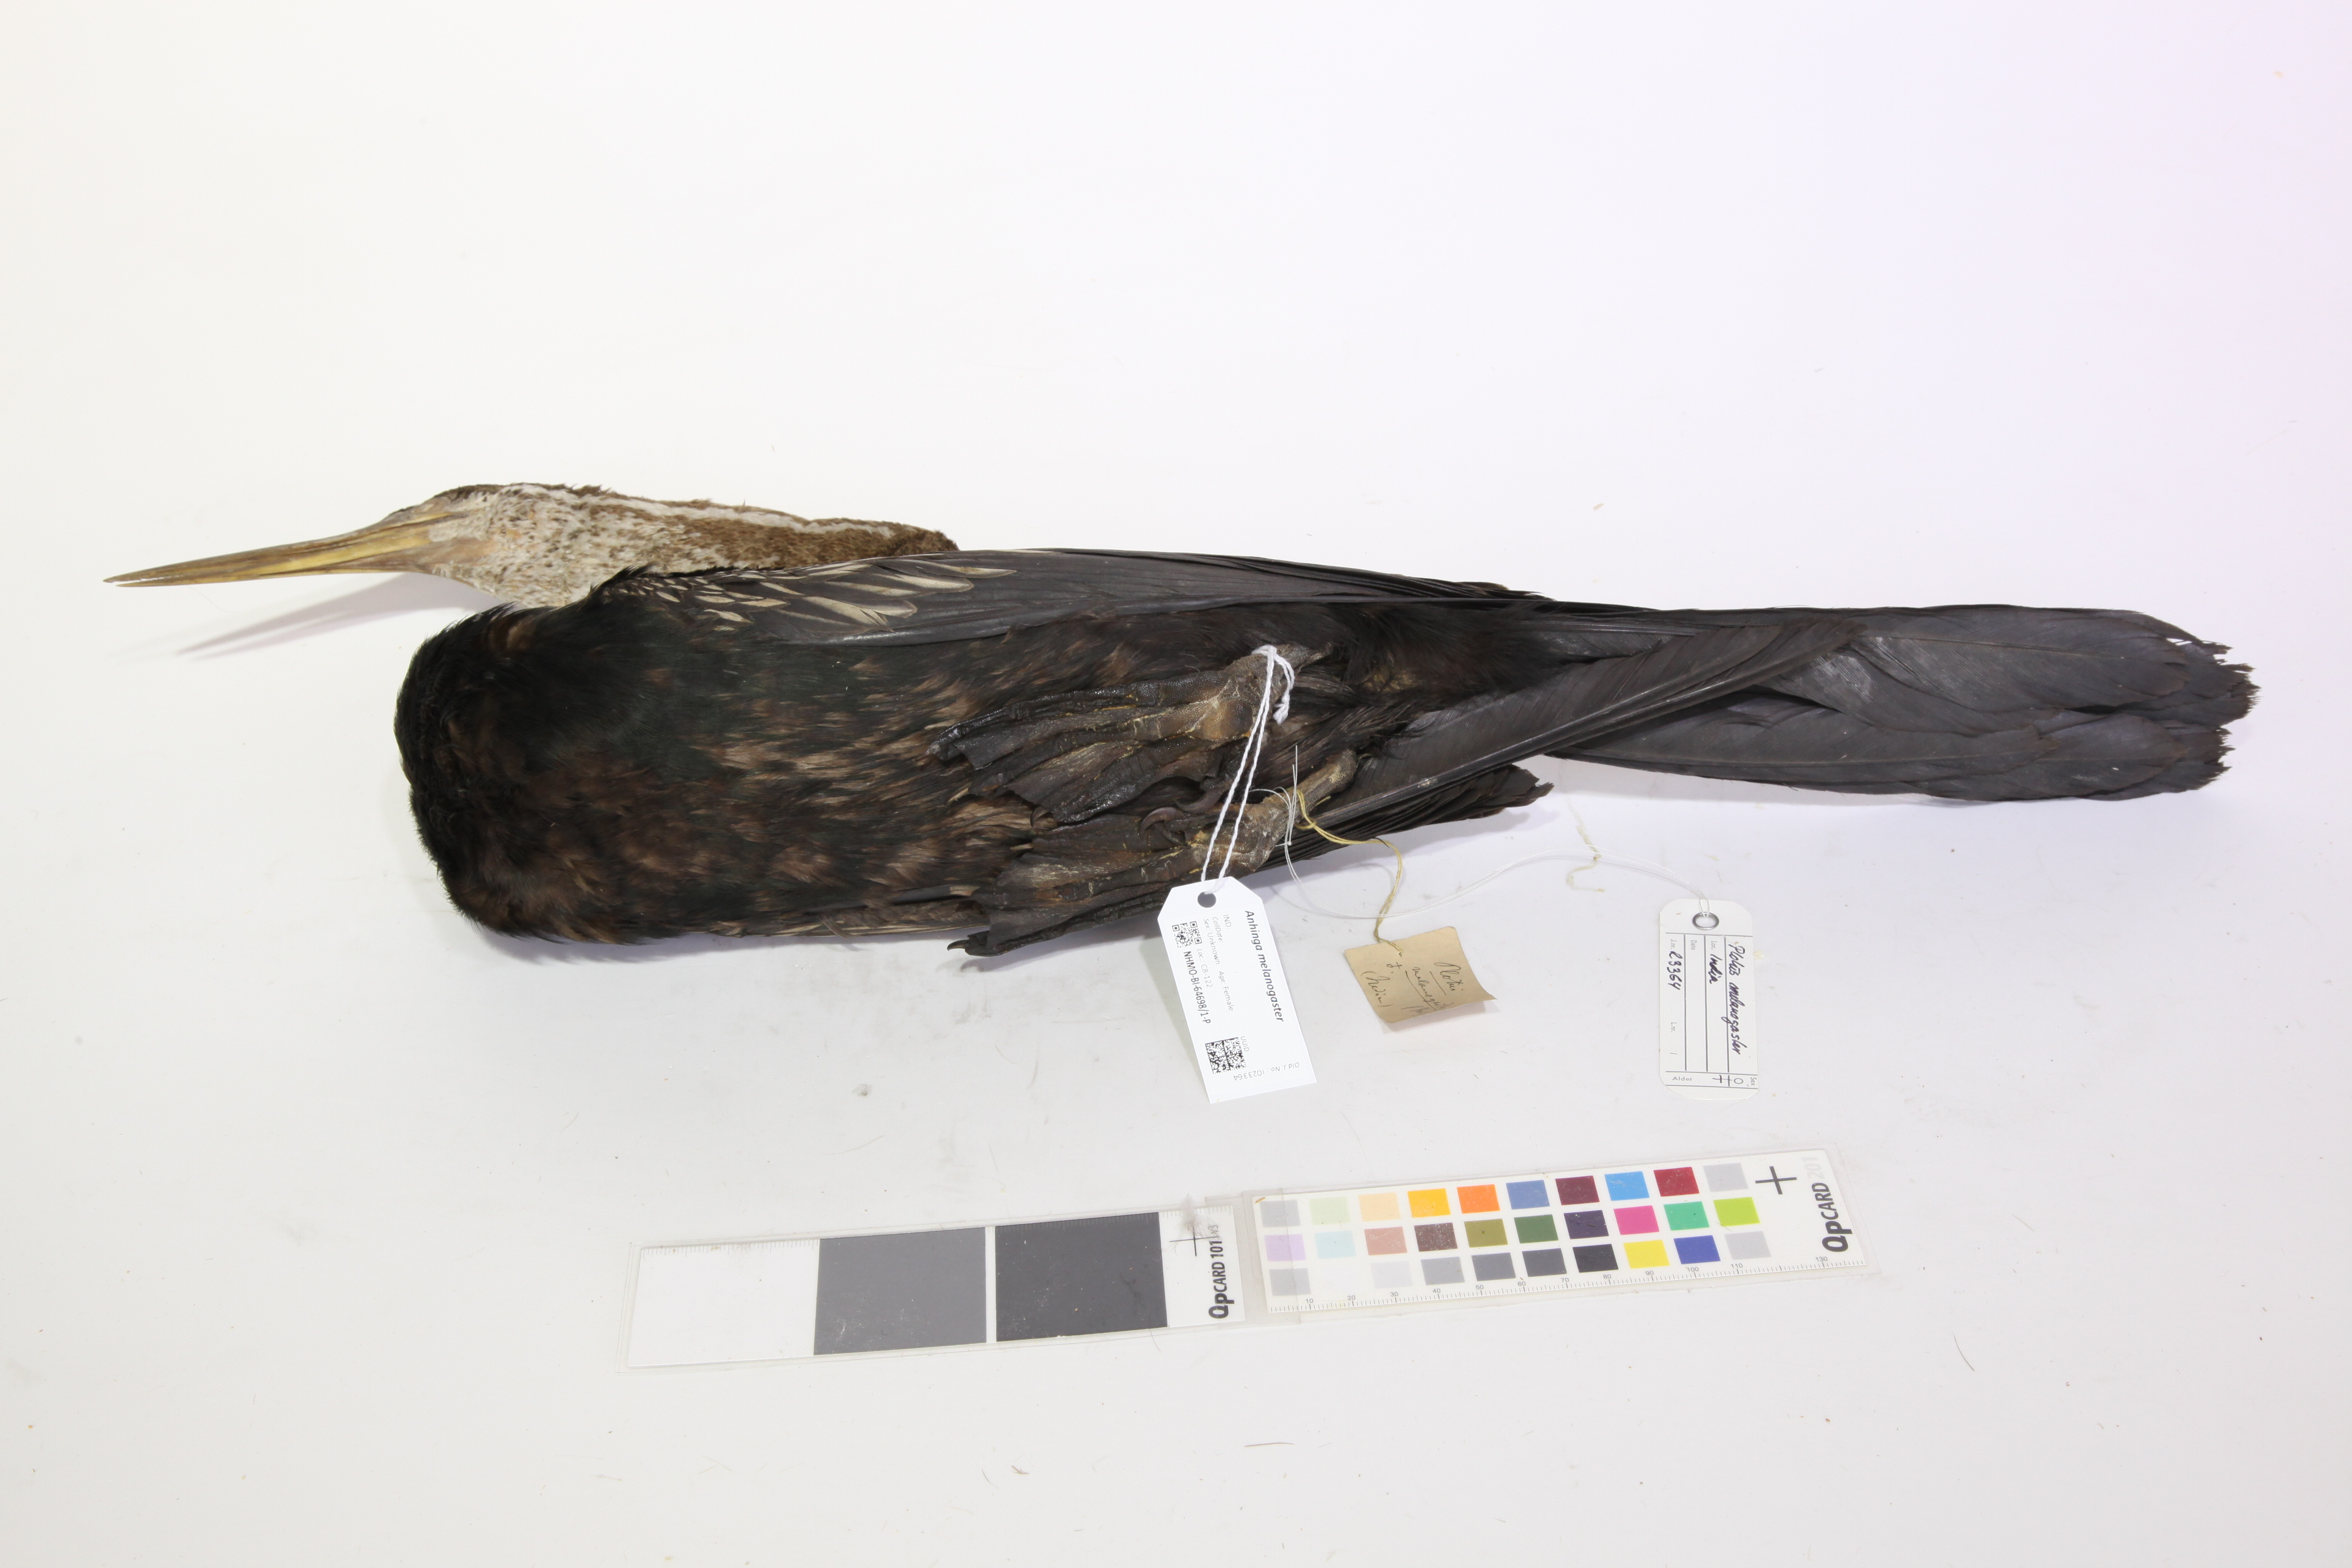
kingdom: Animalia
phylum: Chordata
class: Aves
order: Suliformes
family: Anhingidae
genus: Anhinga
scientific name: Anhinga melanogaster
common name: Oriental darter
